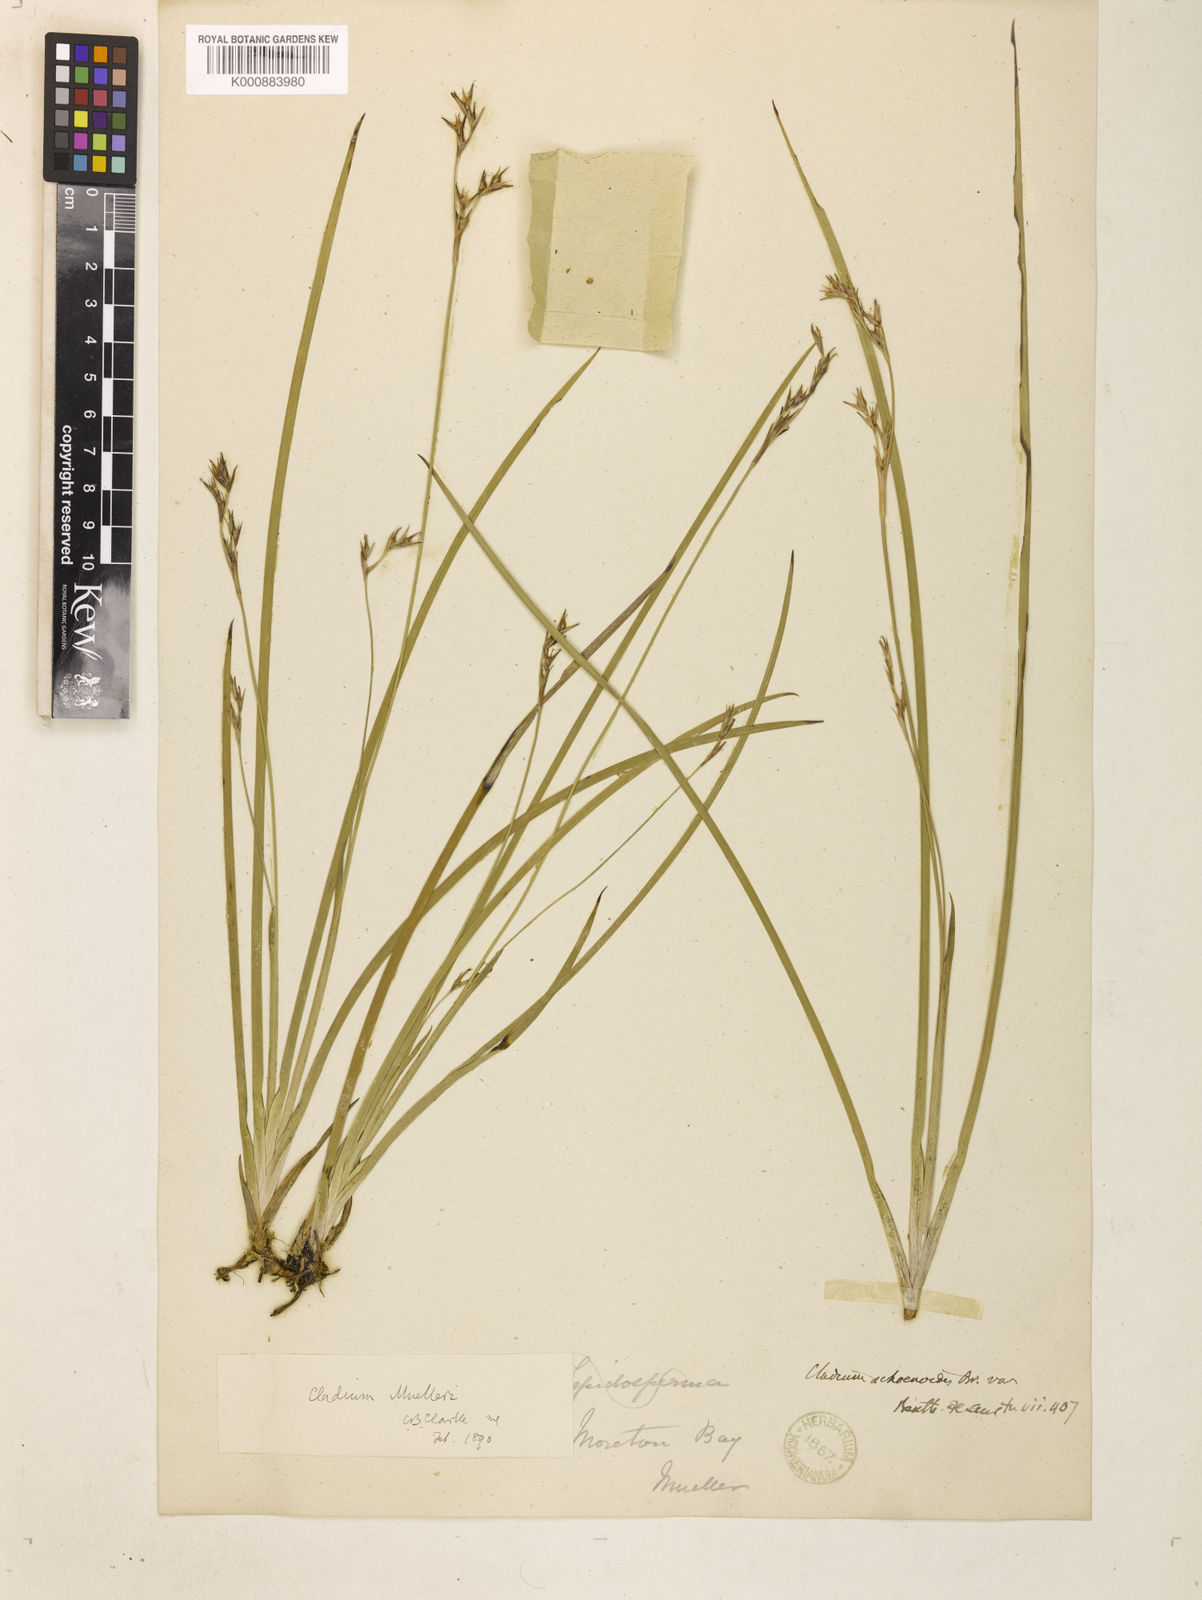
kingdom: Plantae
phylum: Tracheophyta
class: Liliopsida
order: Poales
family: Cyperaceae
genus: Machaerina
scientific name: Machaerina muelleri
